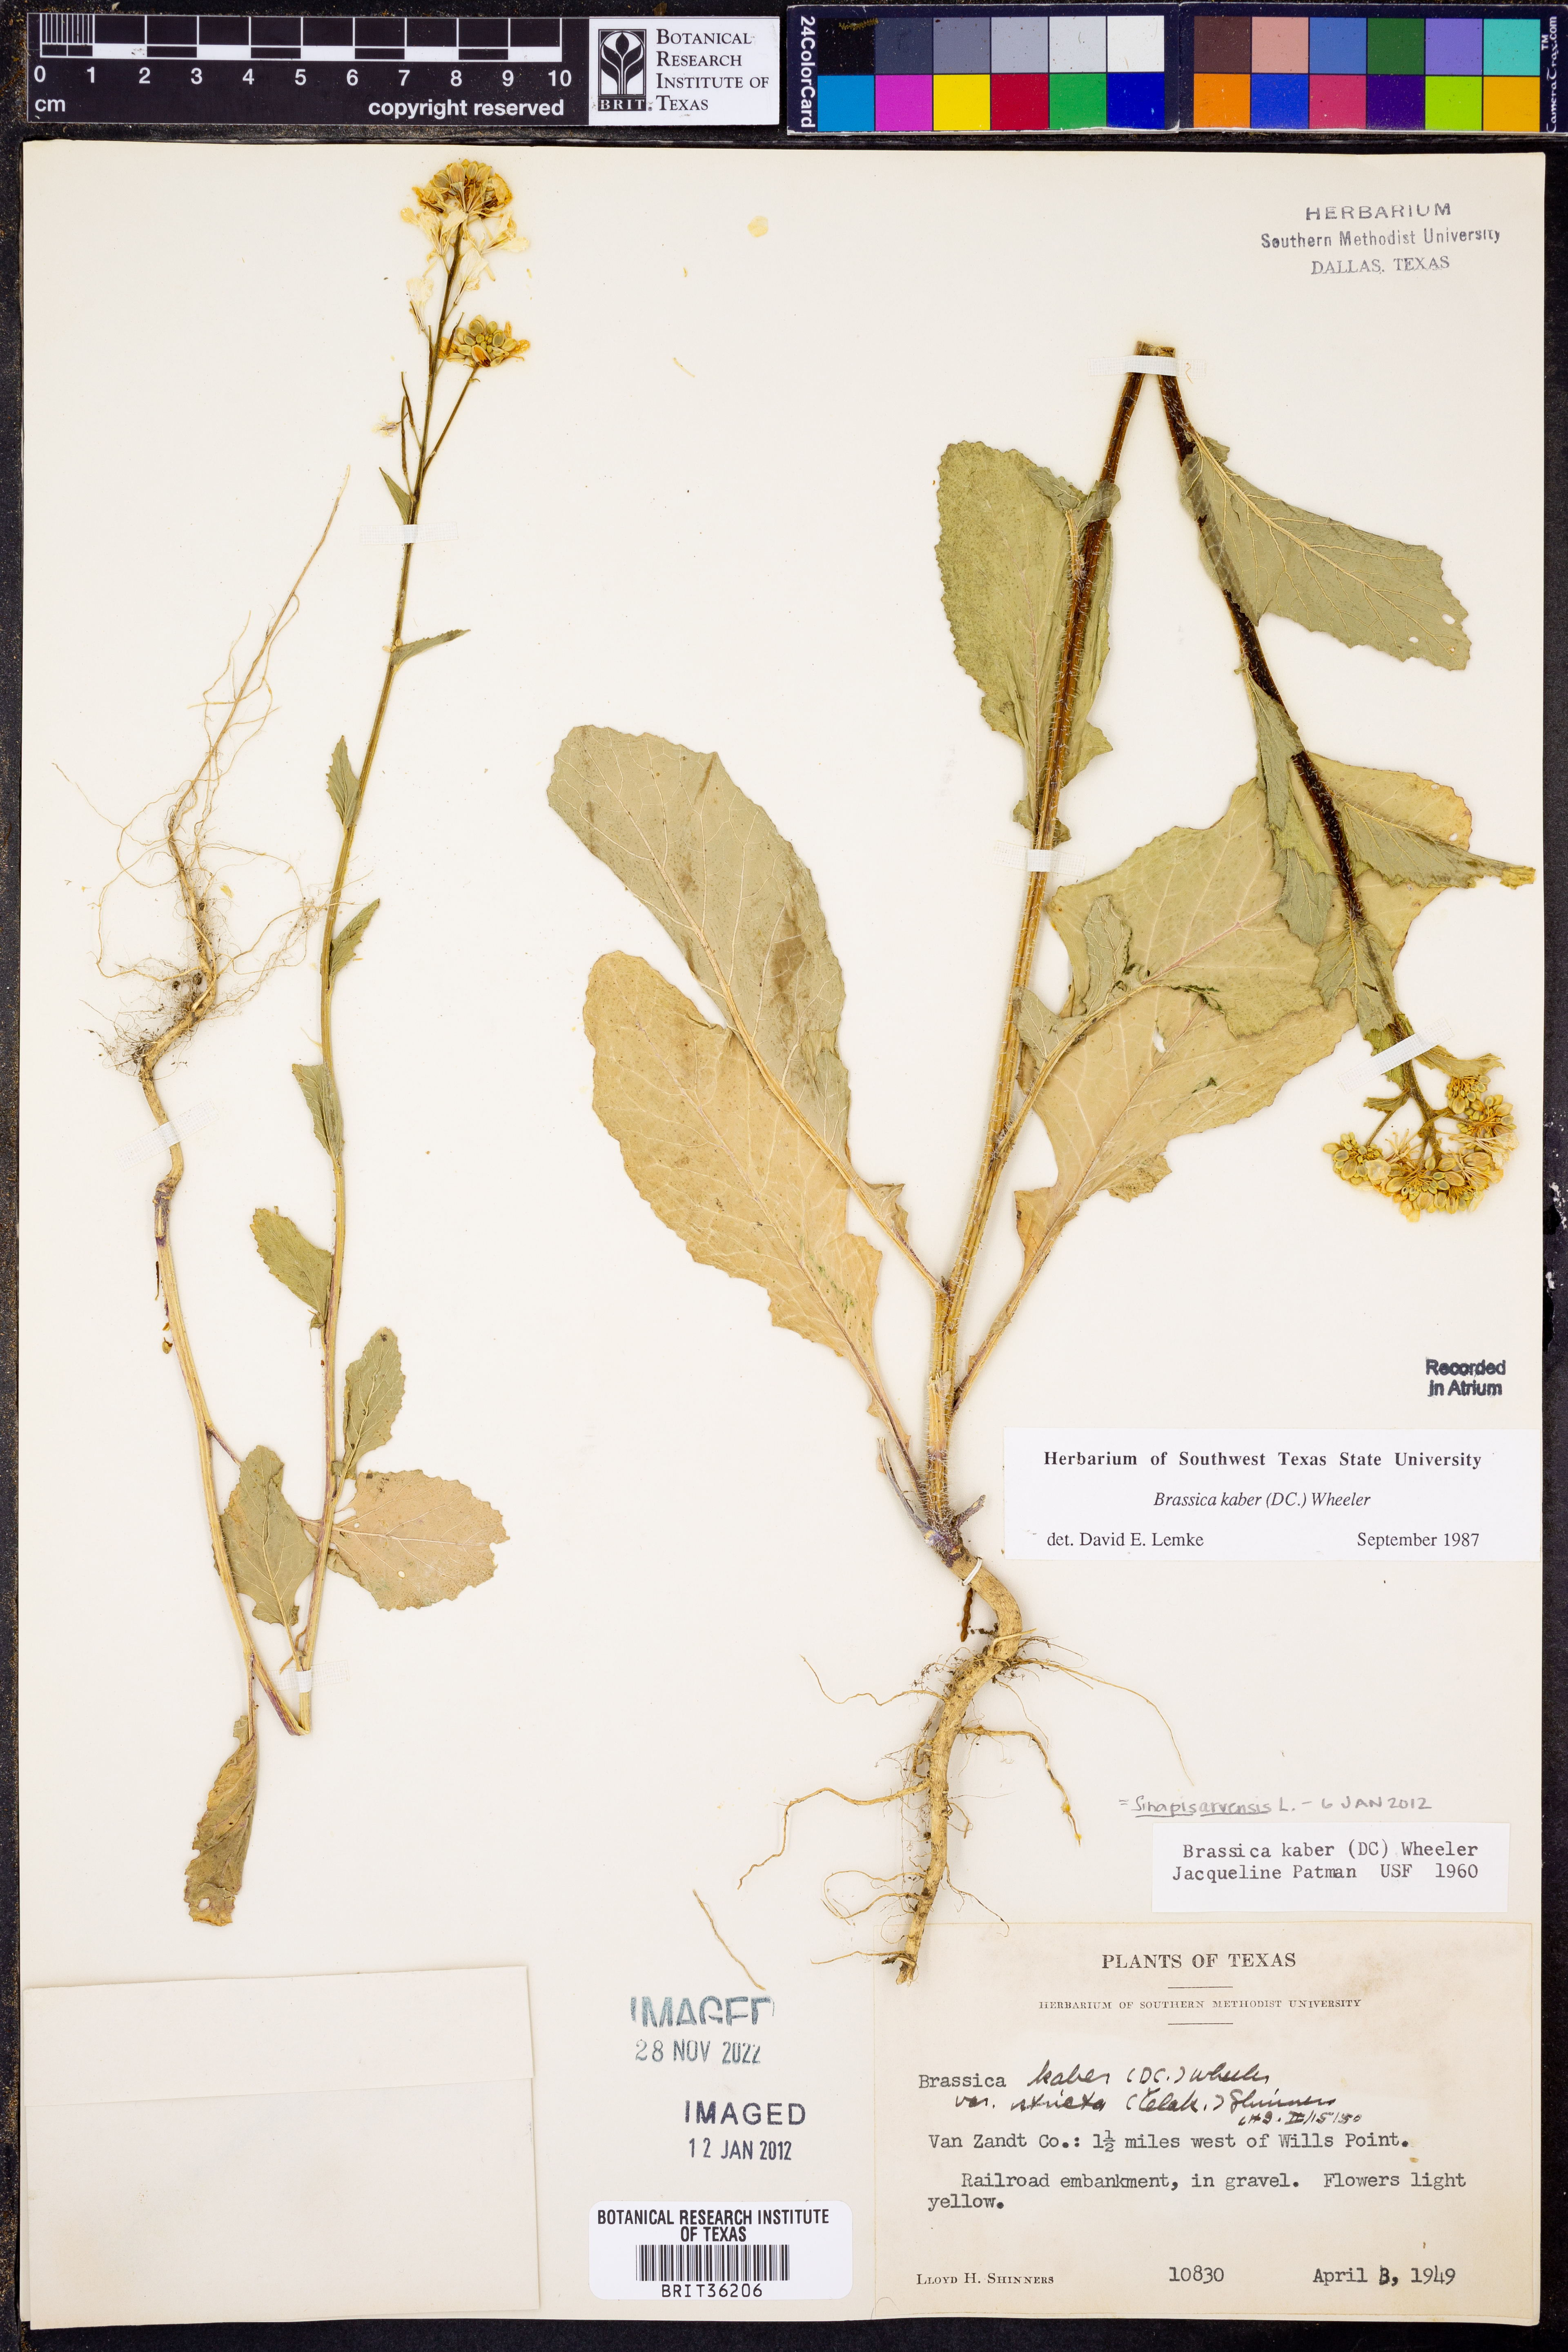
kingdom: Plantae
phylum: Tracheophyta
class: Magnoliopsida
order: Brassicales
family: Brassicaceae
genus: Sinapis
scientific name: Sinapis arvensis
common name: Charlock
